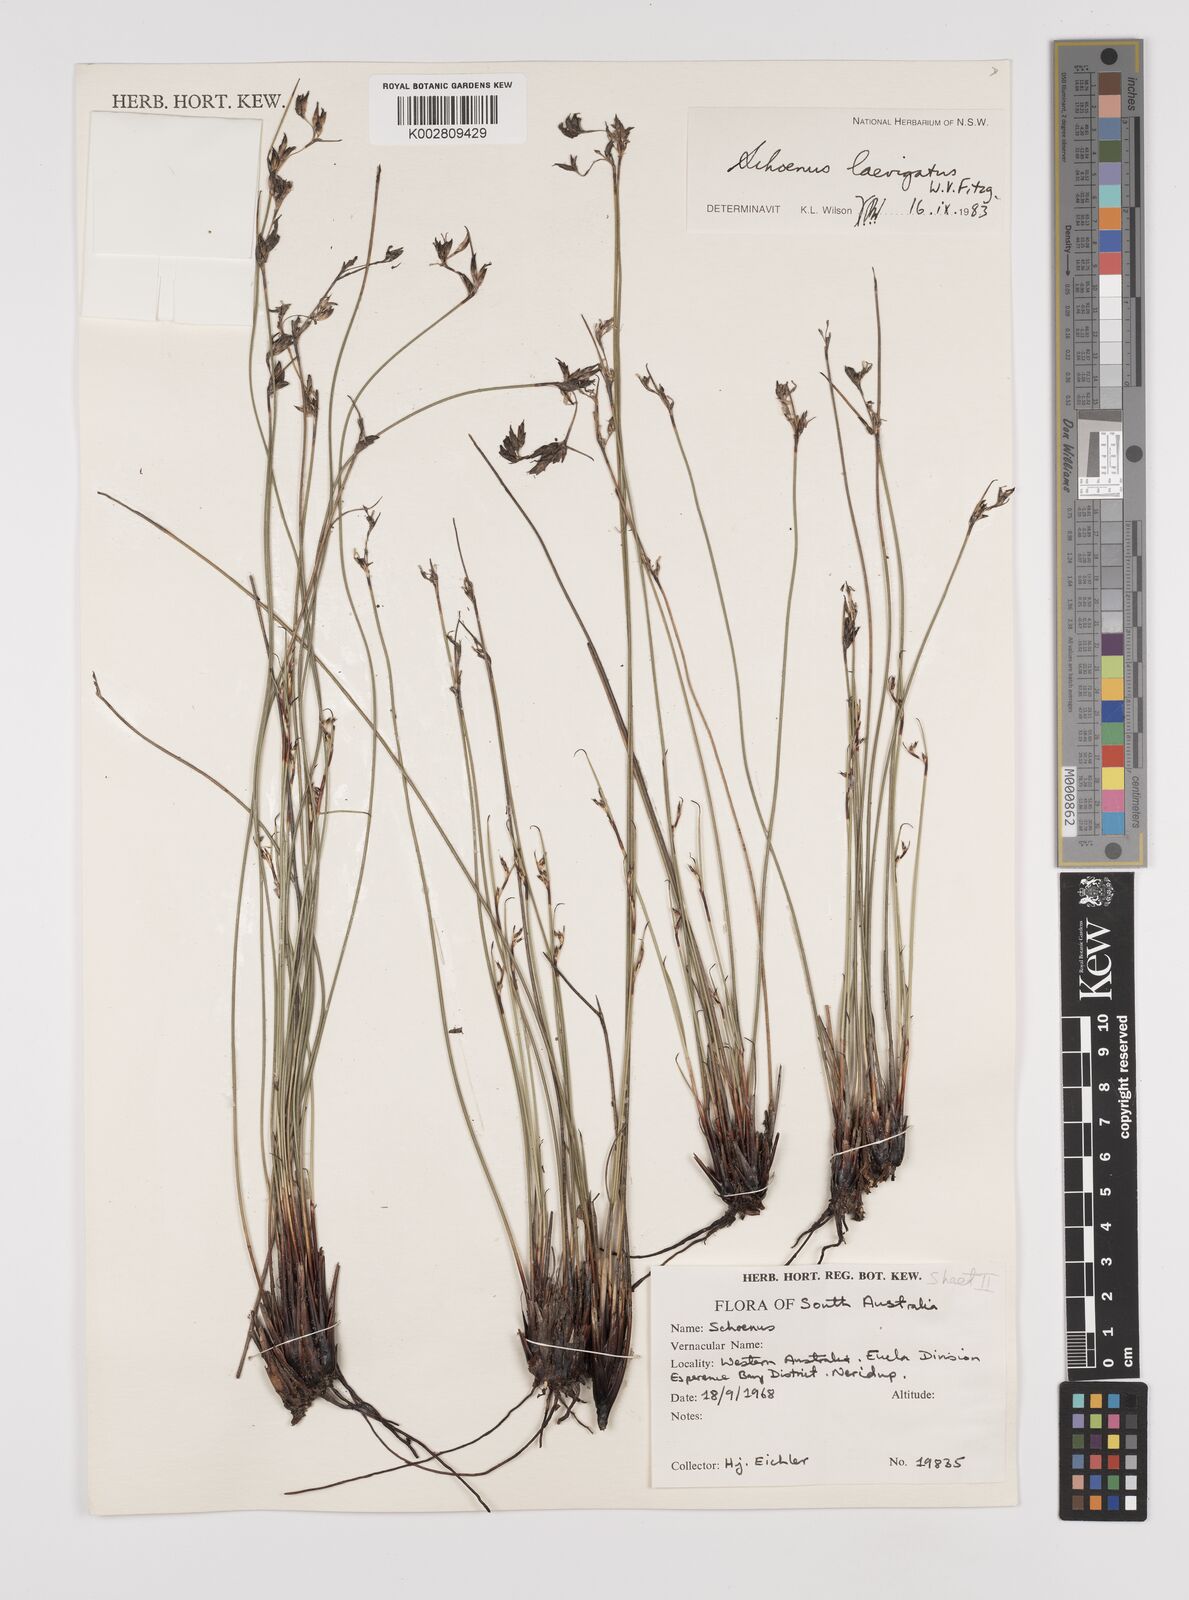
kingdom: Plantae
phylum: Tracheophyta
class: Liliopsida
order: Poales
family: Cyperaceae
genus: Schoenus
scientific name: Schoenus laevigatus
